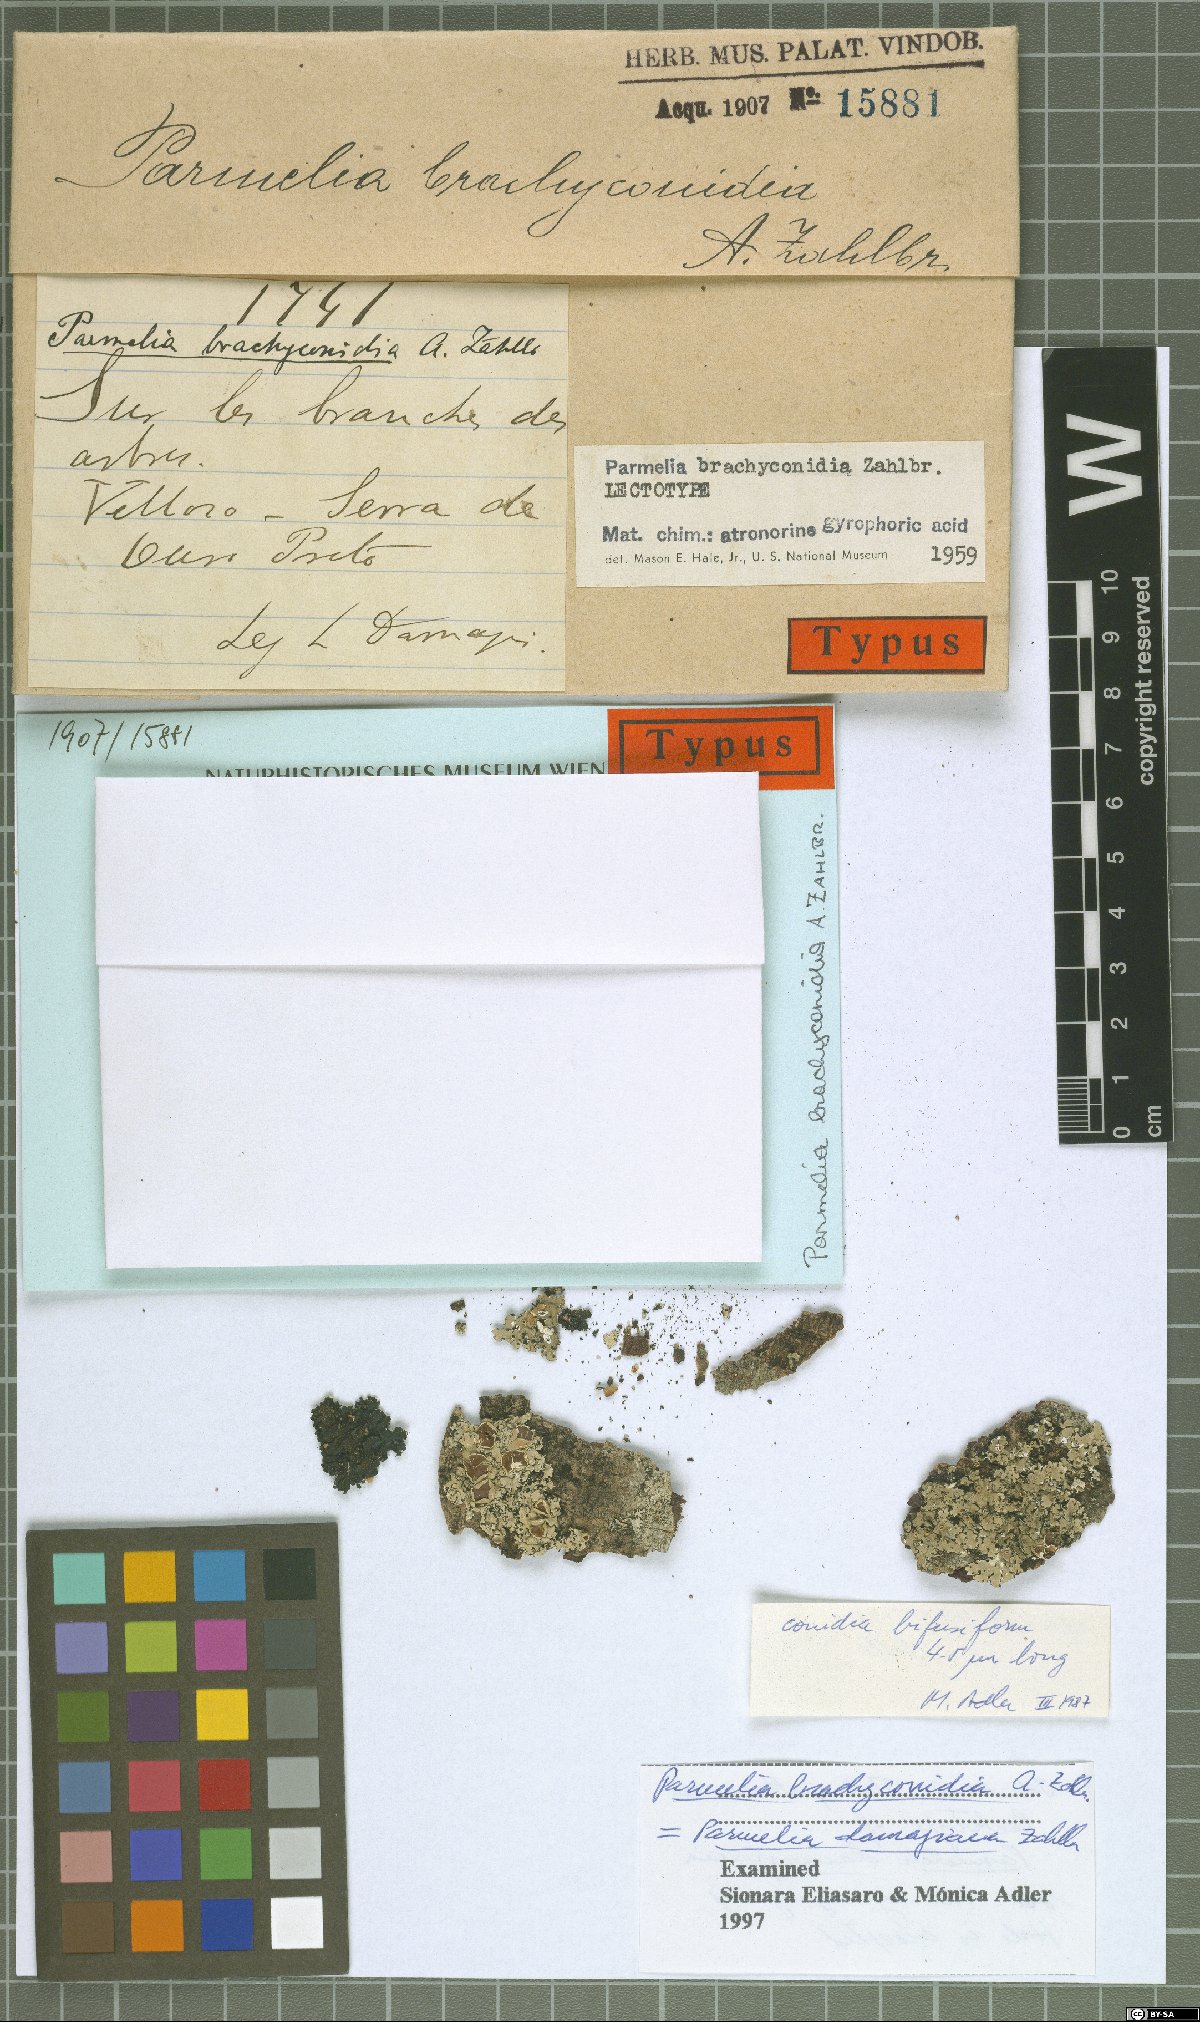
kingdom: Fungi
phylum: Ascomycota
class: Lecanoromycetes
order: Lecanorales
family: Parmeliaceae
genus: Parmelia
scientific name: Parmelia
